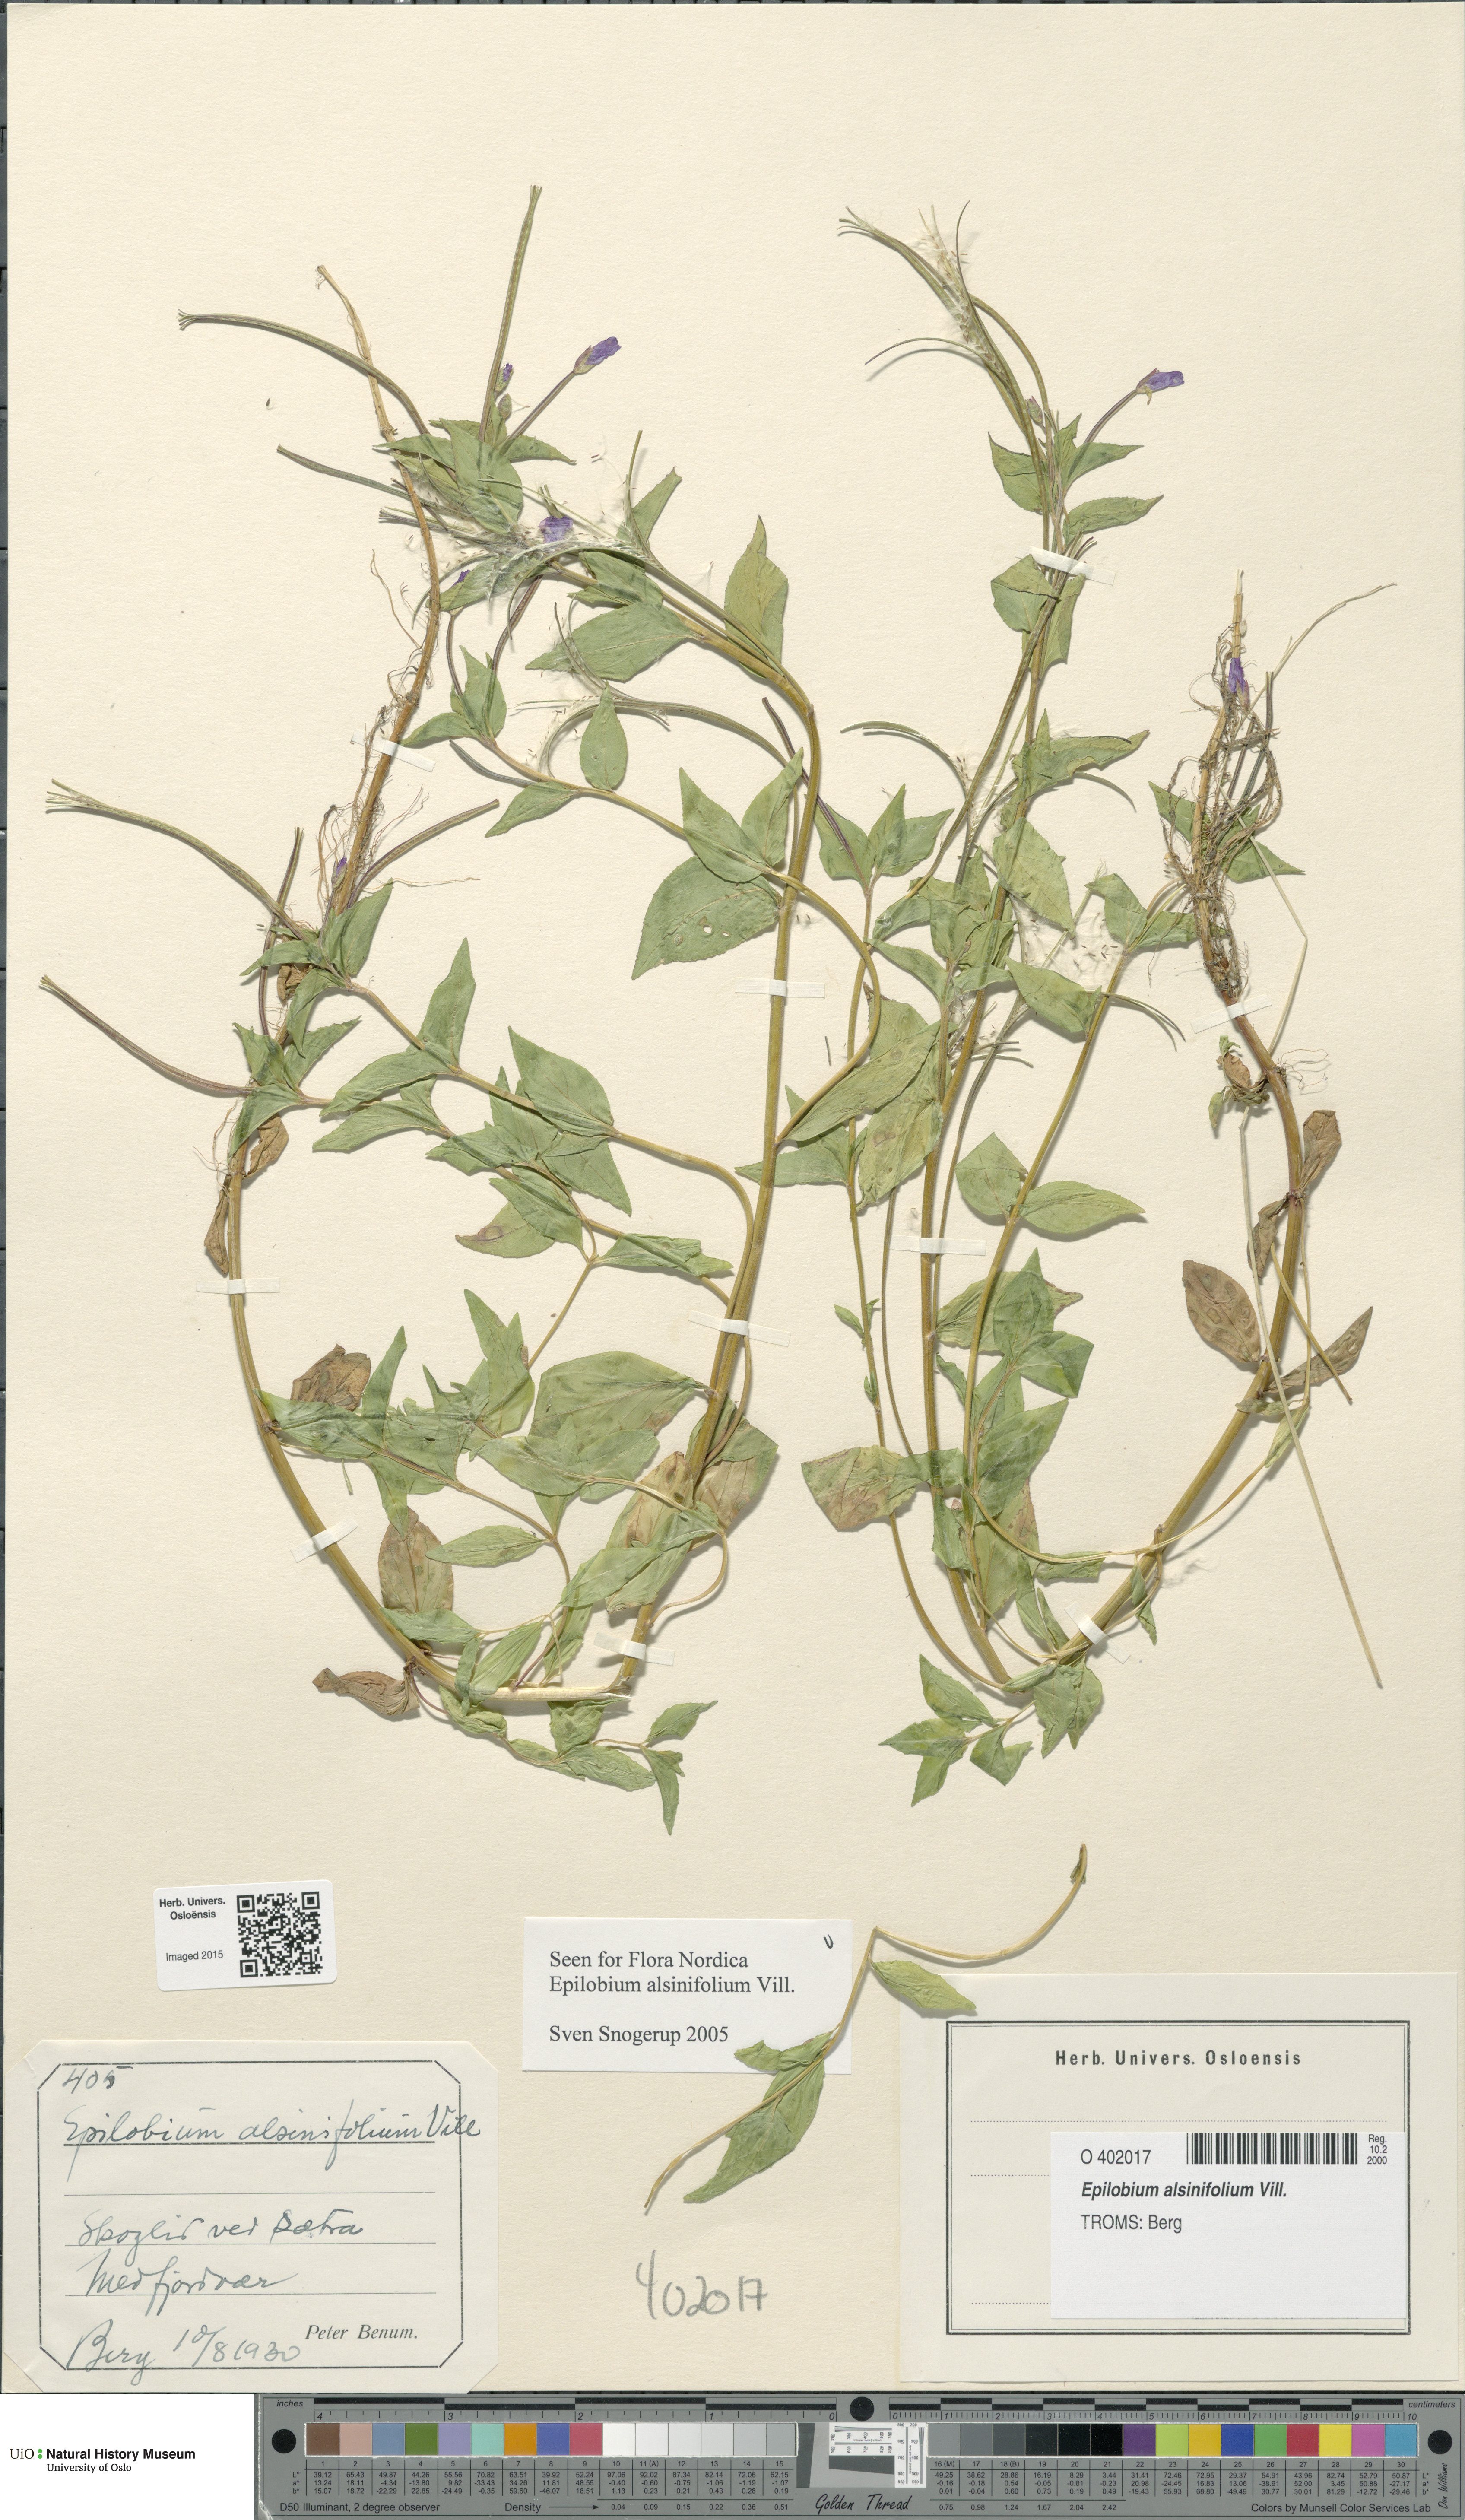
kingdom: Plantae
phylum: Tracheophyta
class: Magnoliopsida
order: Myrtales
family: Onagraceae
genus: Epilobium
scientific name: Epilobium alsinifolium
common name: Chickweed willowherb
